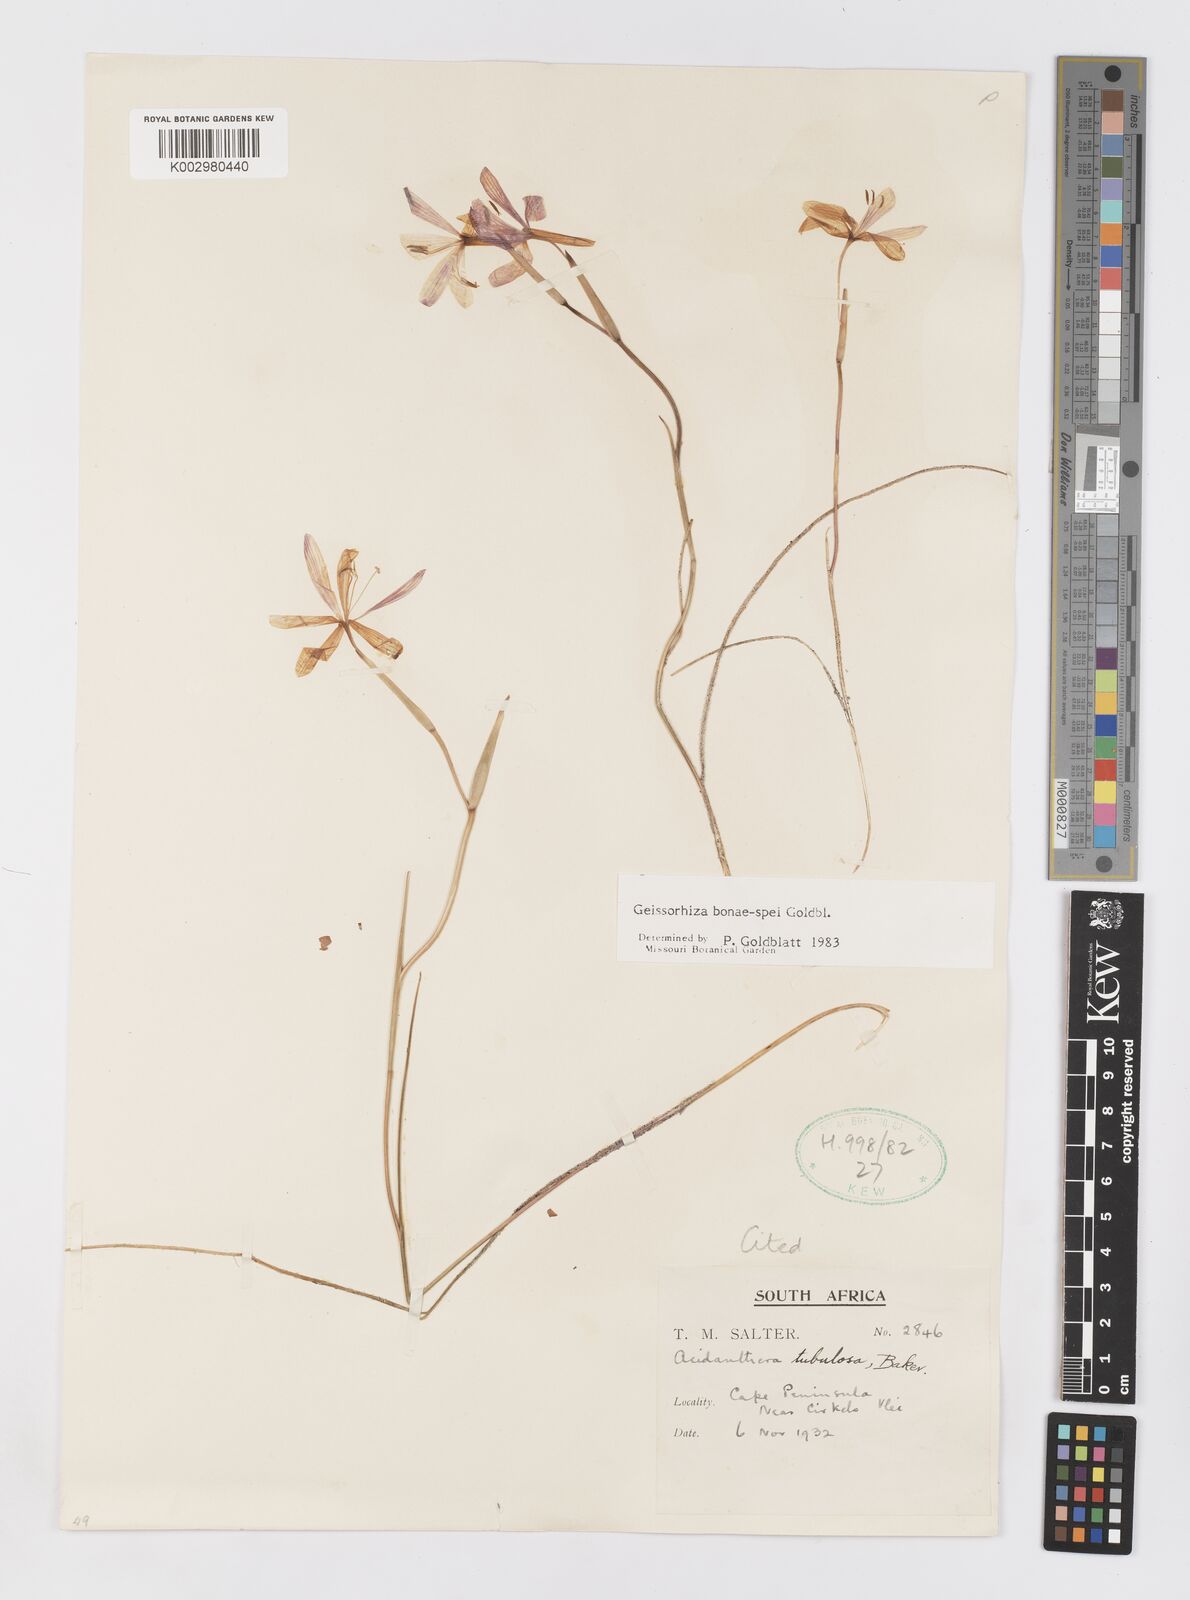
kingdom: Plantae
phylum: Tracheophyta
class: Liliopsida
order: Asparagales
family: Iridaceae
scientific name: Iridaceae
